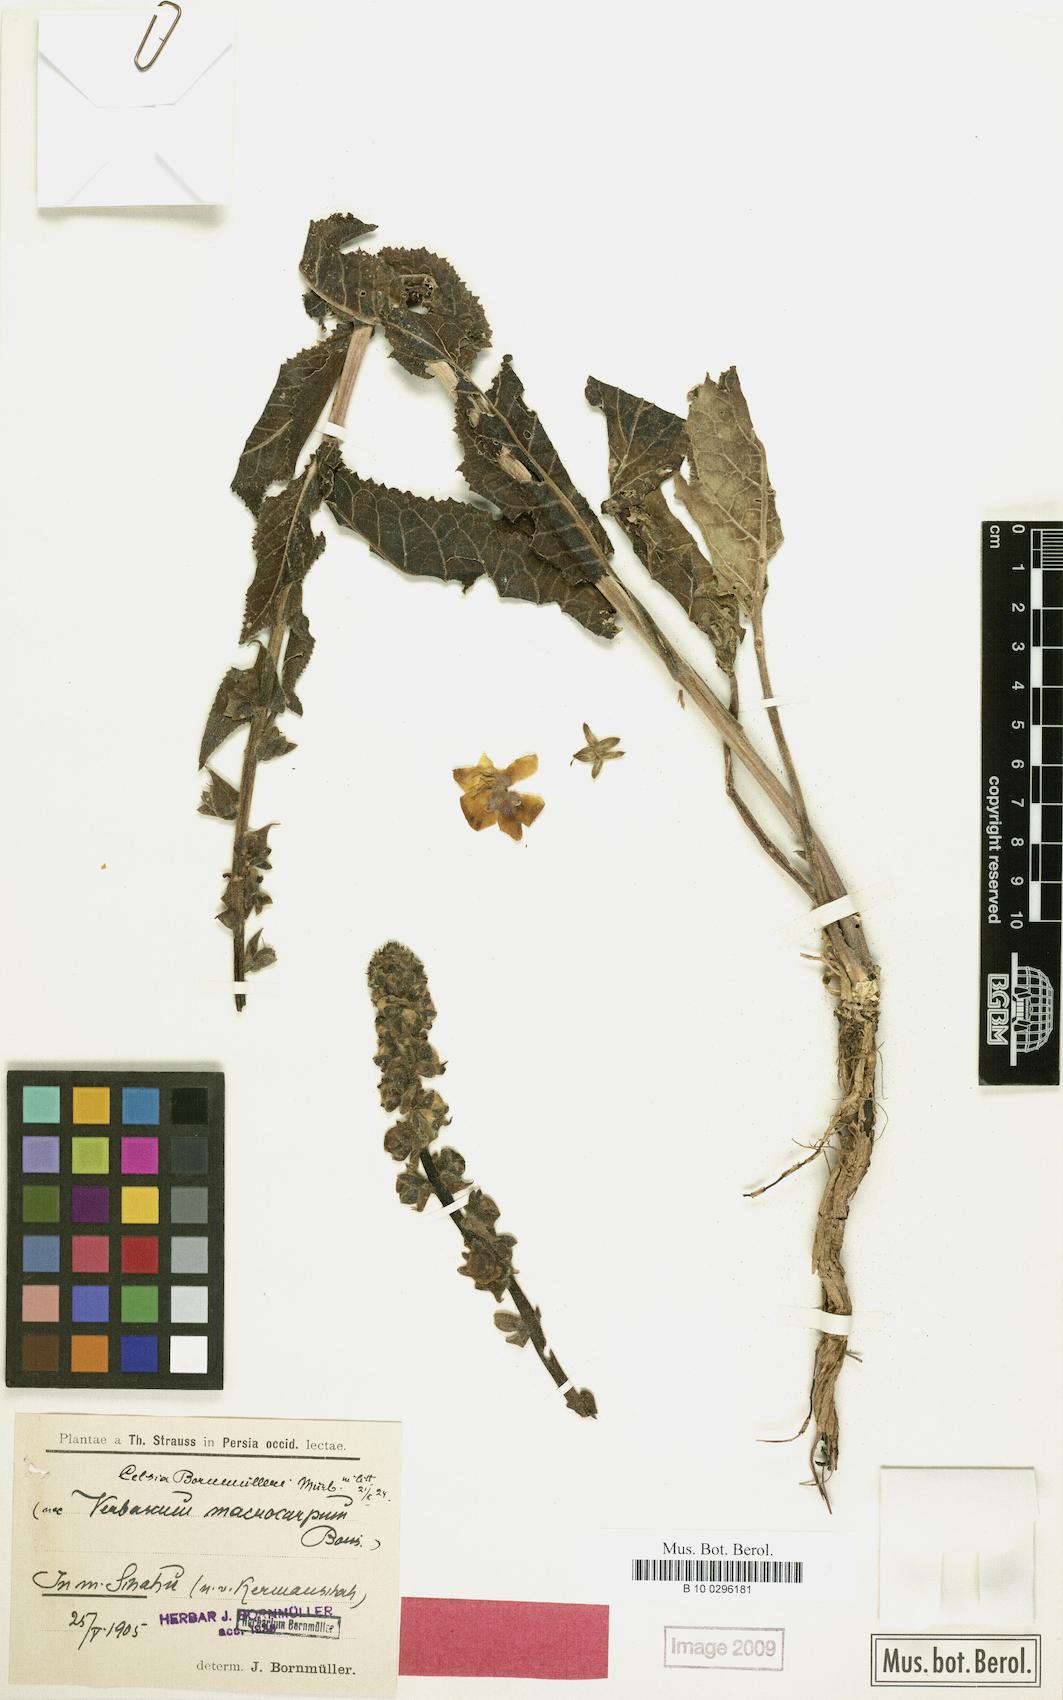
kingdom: Plantae
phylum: Tracheophyta
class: Magnoliopsida
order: Lamiales
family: Scrophulariaceae
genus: Verbascum
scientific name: Verbascum bornmuellerianum
